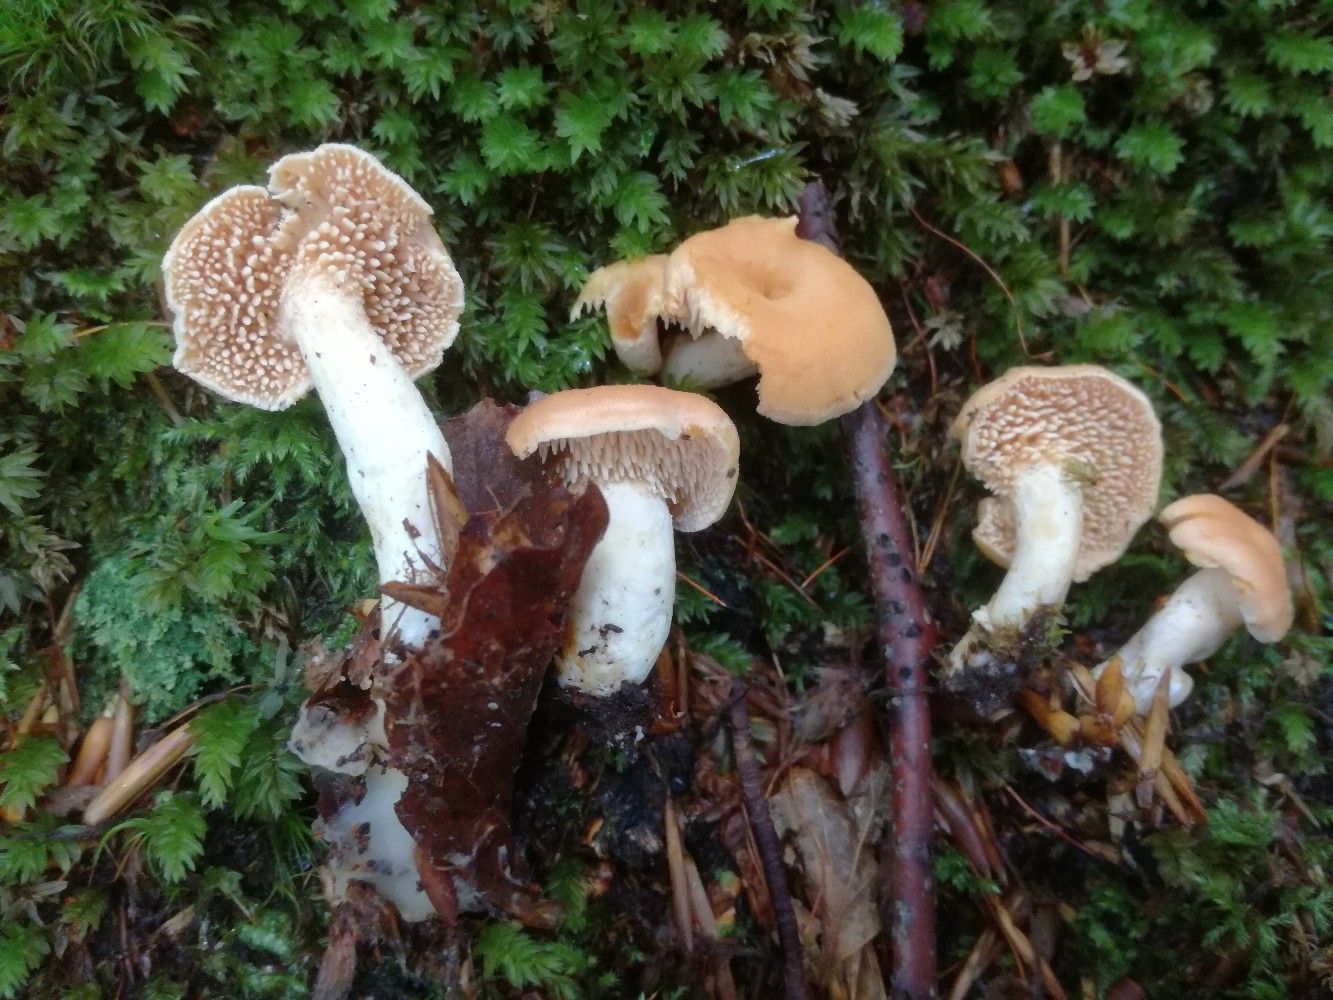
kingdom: Fungi
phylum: Basidiomycota
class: Agaricomycetes
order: Cantharellales
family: Hydnaceae
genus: Hydnum
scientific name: Hydnum umbilicatum
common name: navle-pigsvamp
